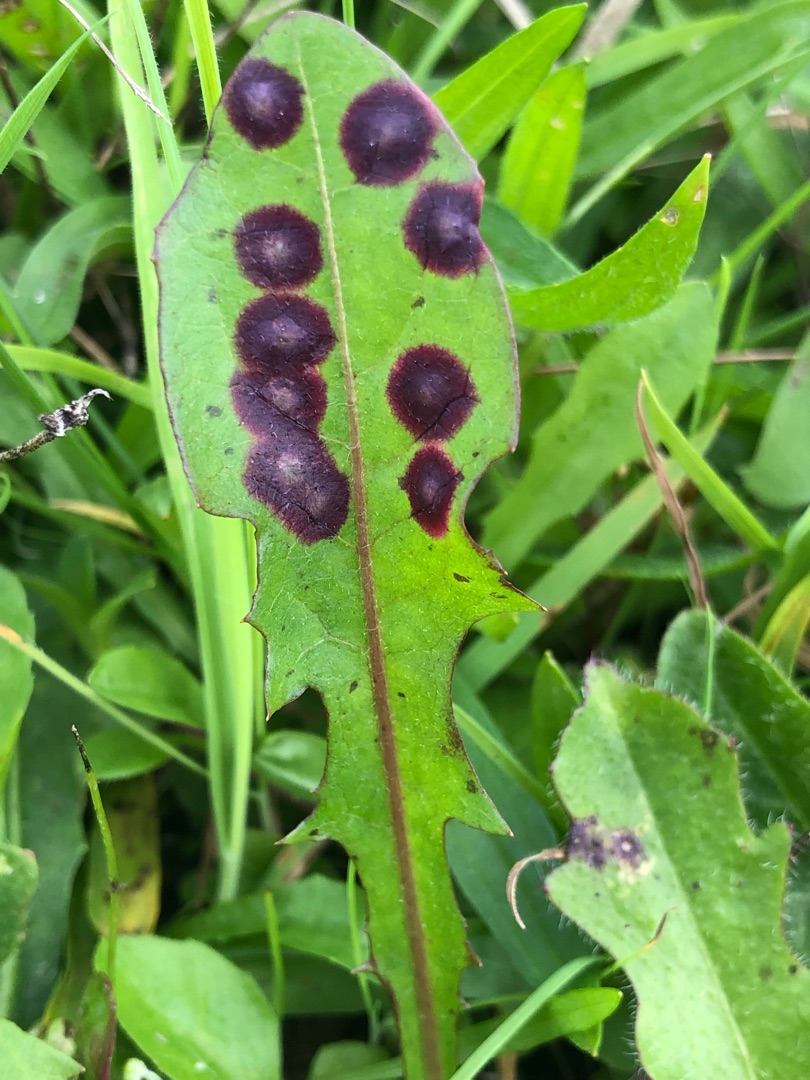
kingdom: Animalia
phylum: Arthropoda
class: Insecta
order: Diptera
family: Cecidomyiidae
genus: Cystiphora
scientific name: Cystiphora taraxaci
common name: Mælkebøttegalmyg
